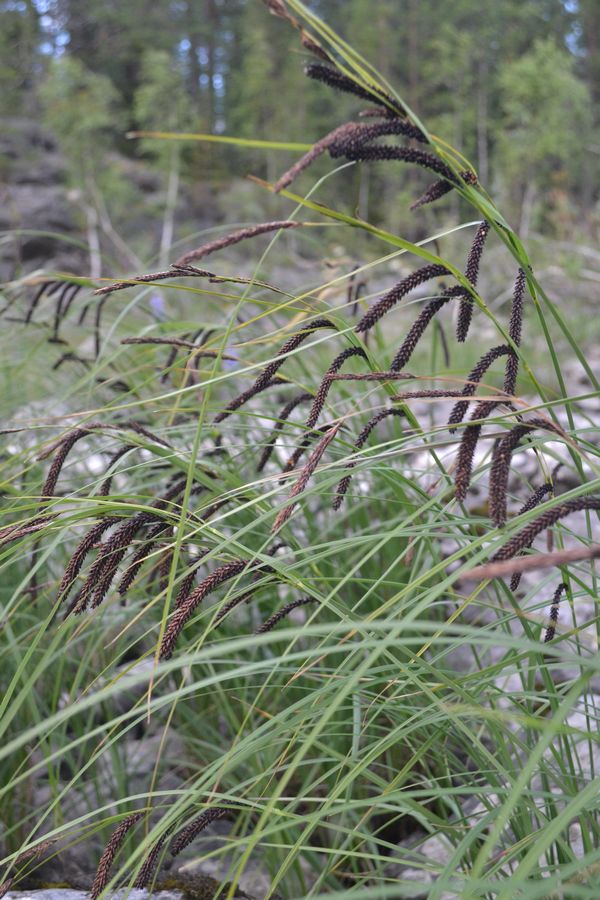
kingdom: Plantae
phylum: Tracheophyta
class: Liliopsida
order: Poales
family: Cyperaceae
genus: Carex
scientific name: Carex acuta
